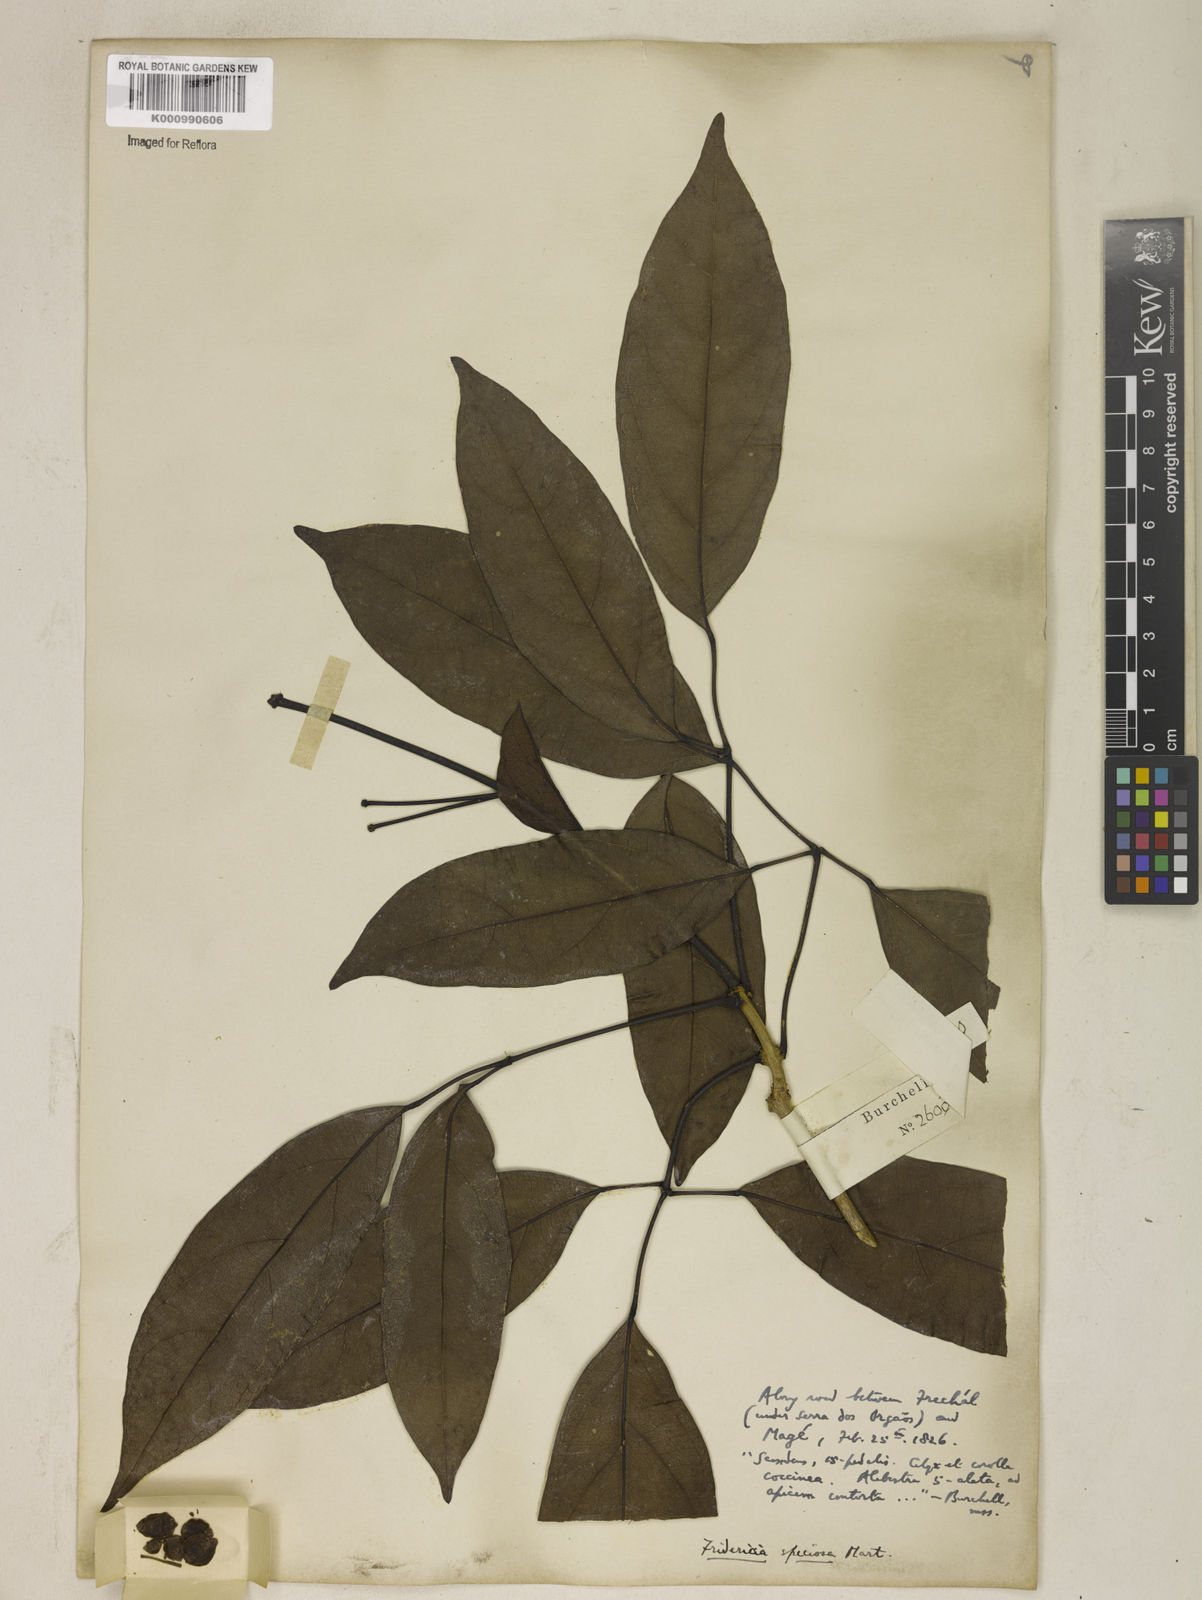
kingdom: Plantae
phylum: Tracheophyta
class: Magnoliopsida
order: Lamiales
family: Bignoniaceae
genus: Fridericia
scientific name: Fridericia speciosa
